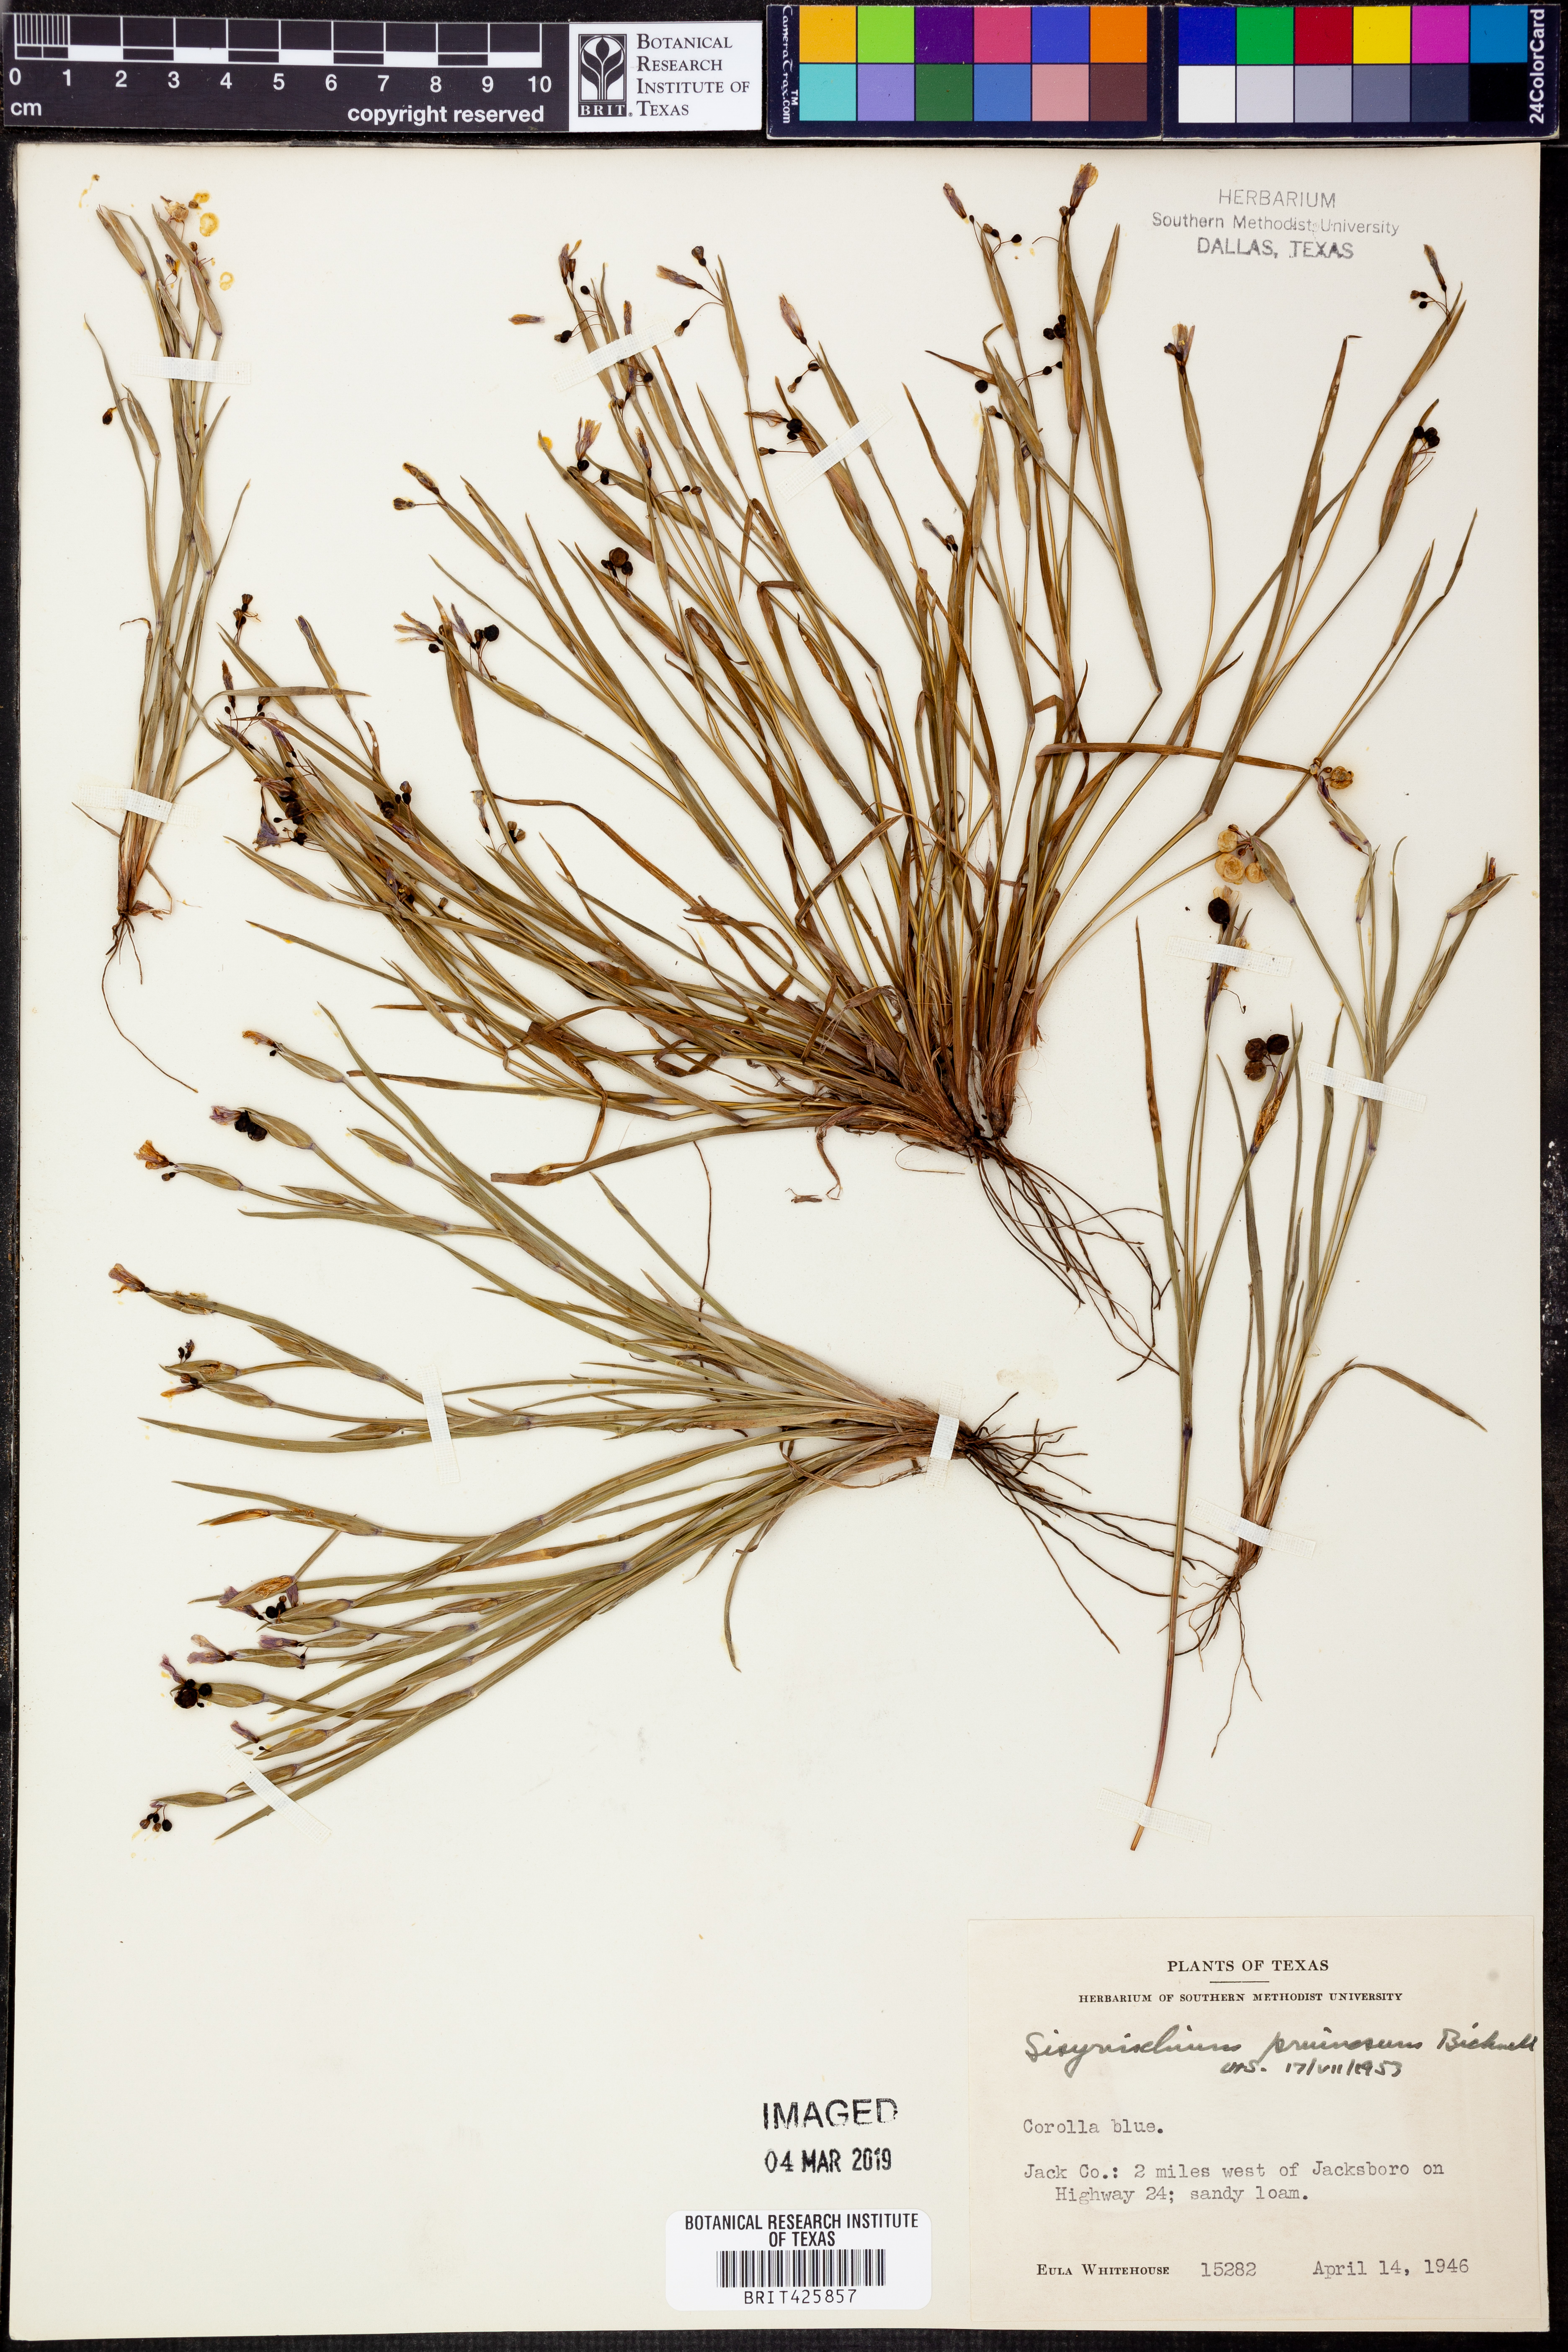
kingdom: Plantae
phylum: Tracheophyta
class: Liliopsida
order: Asparagales
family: Iridaceae
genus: Sisyrinchium
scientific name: Sisyrinchium pruinosum
